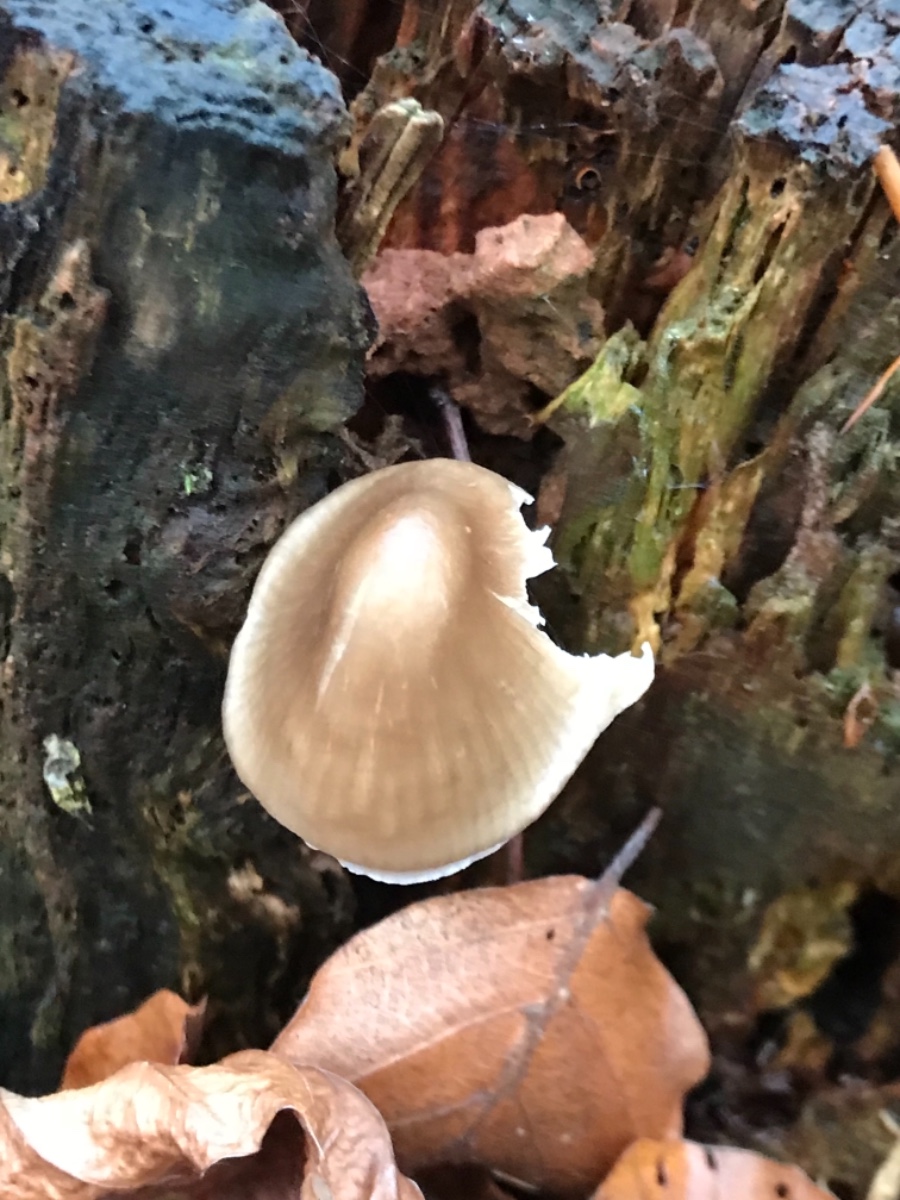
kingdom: Fungi
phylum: Basidiomycota
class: Agaricomycetes
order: Agaricales
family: Mycenaceae
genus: Mycena
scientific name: Mycena galericulata
